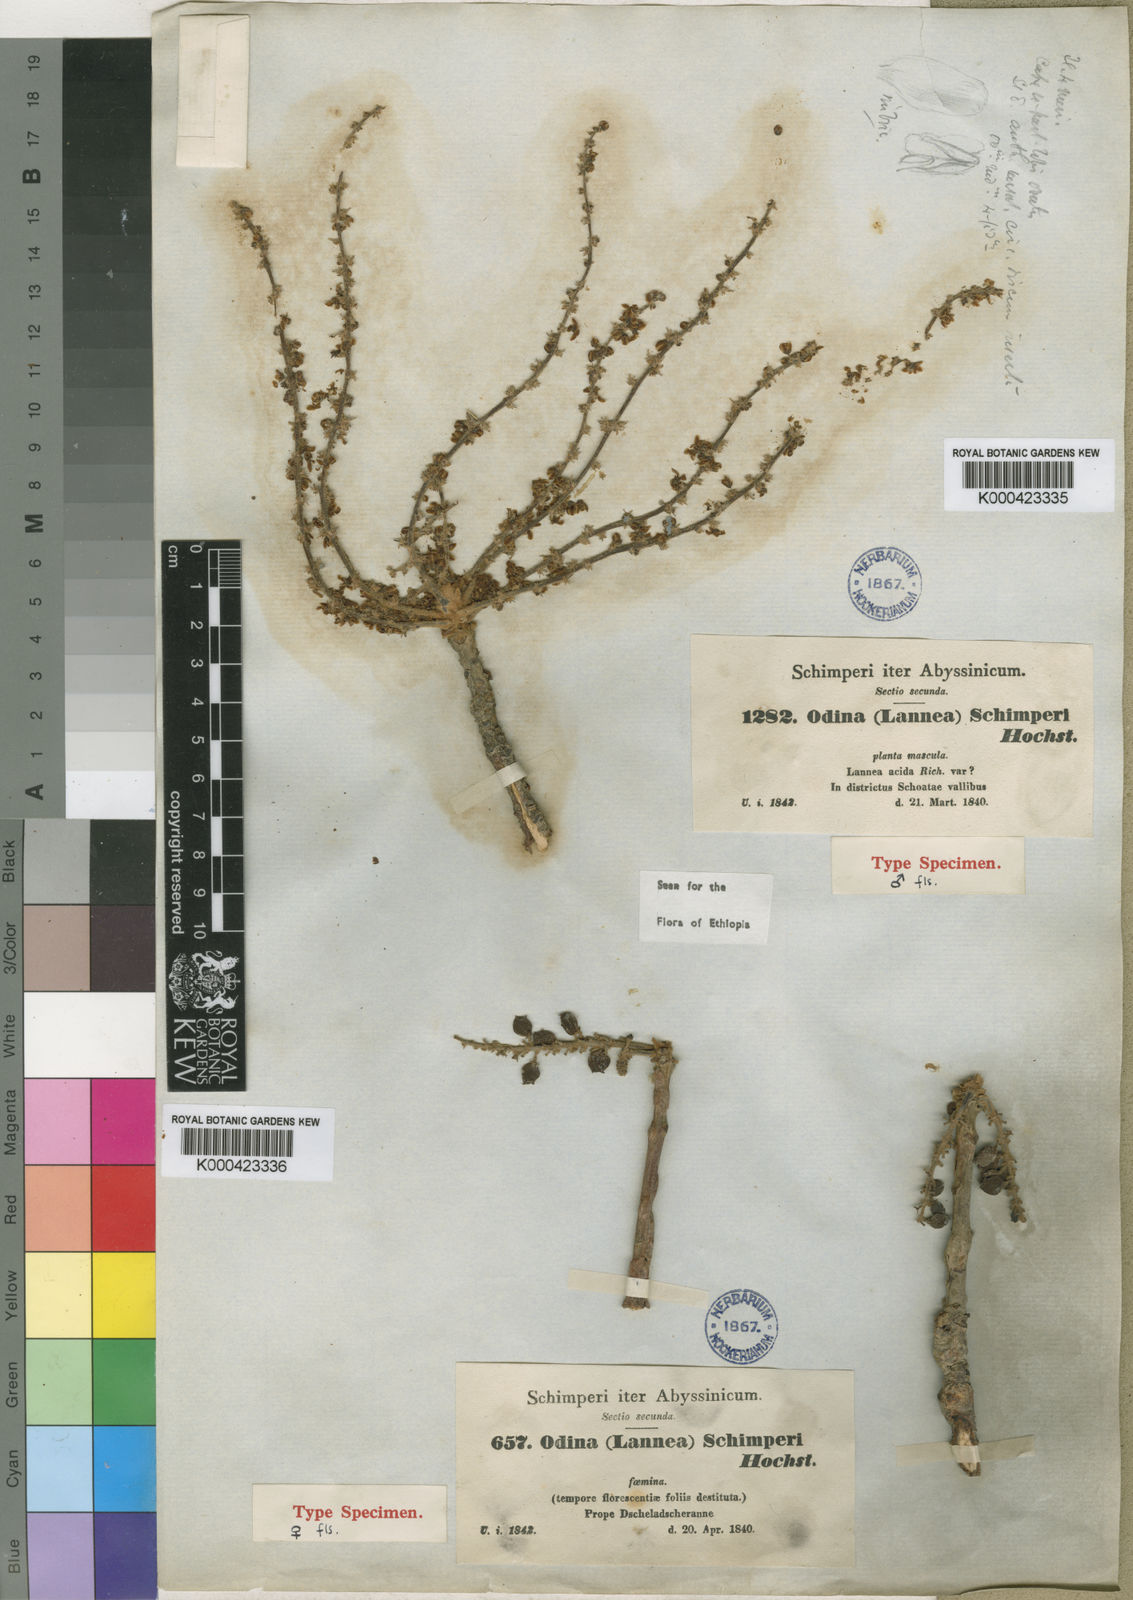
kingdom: Plantae
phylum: Tracheophyta
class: Magnoliopsida
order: Sapindales
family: Anacardiaceae
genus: Lannea
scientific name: Lannea schimperi
